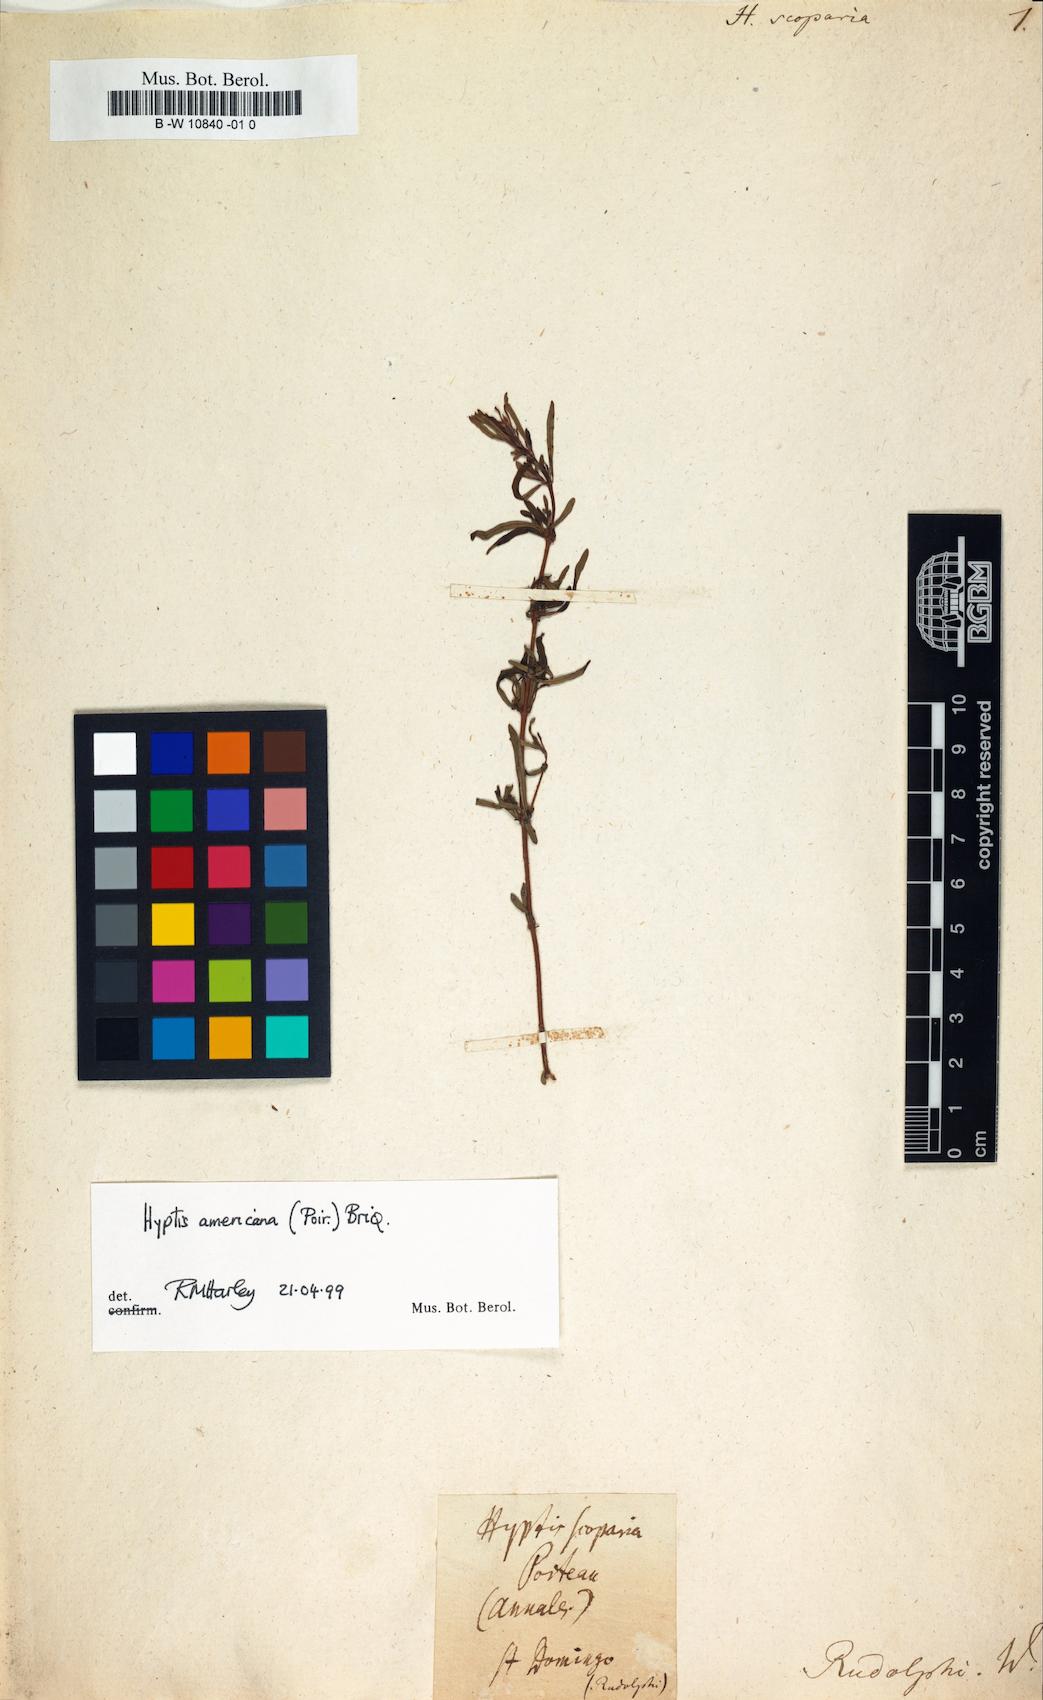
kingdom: Plantae
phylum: Tracheophyta
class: Magnoliopsida
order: Lamiales
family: Lamiaceae
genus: Condea
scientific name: Condea americana
